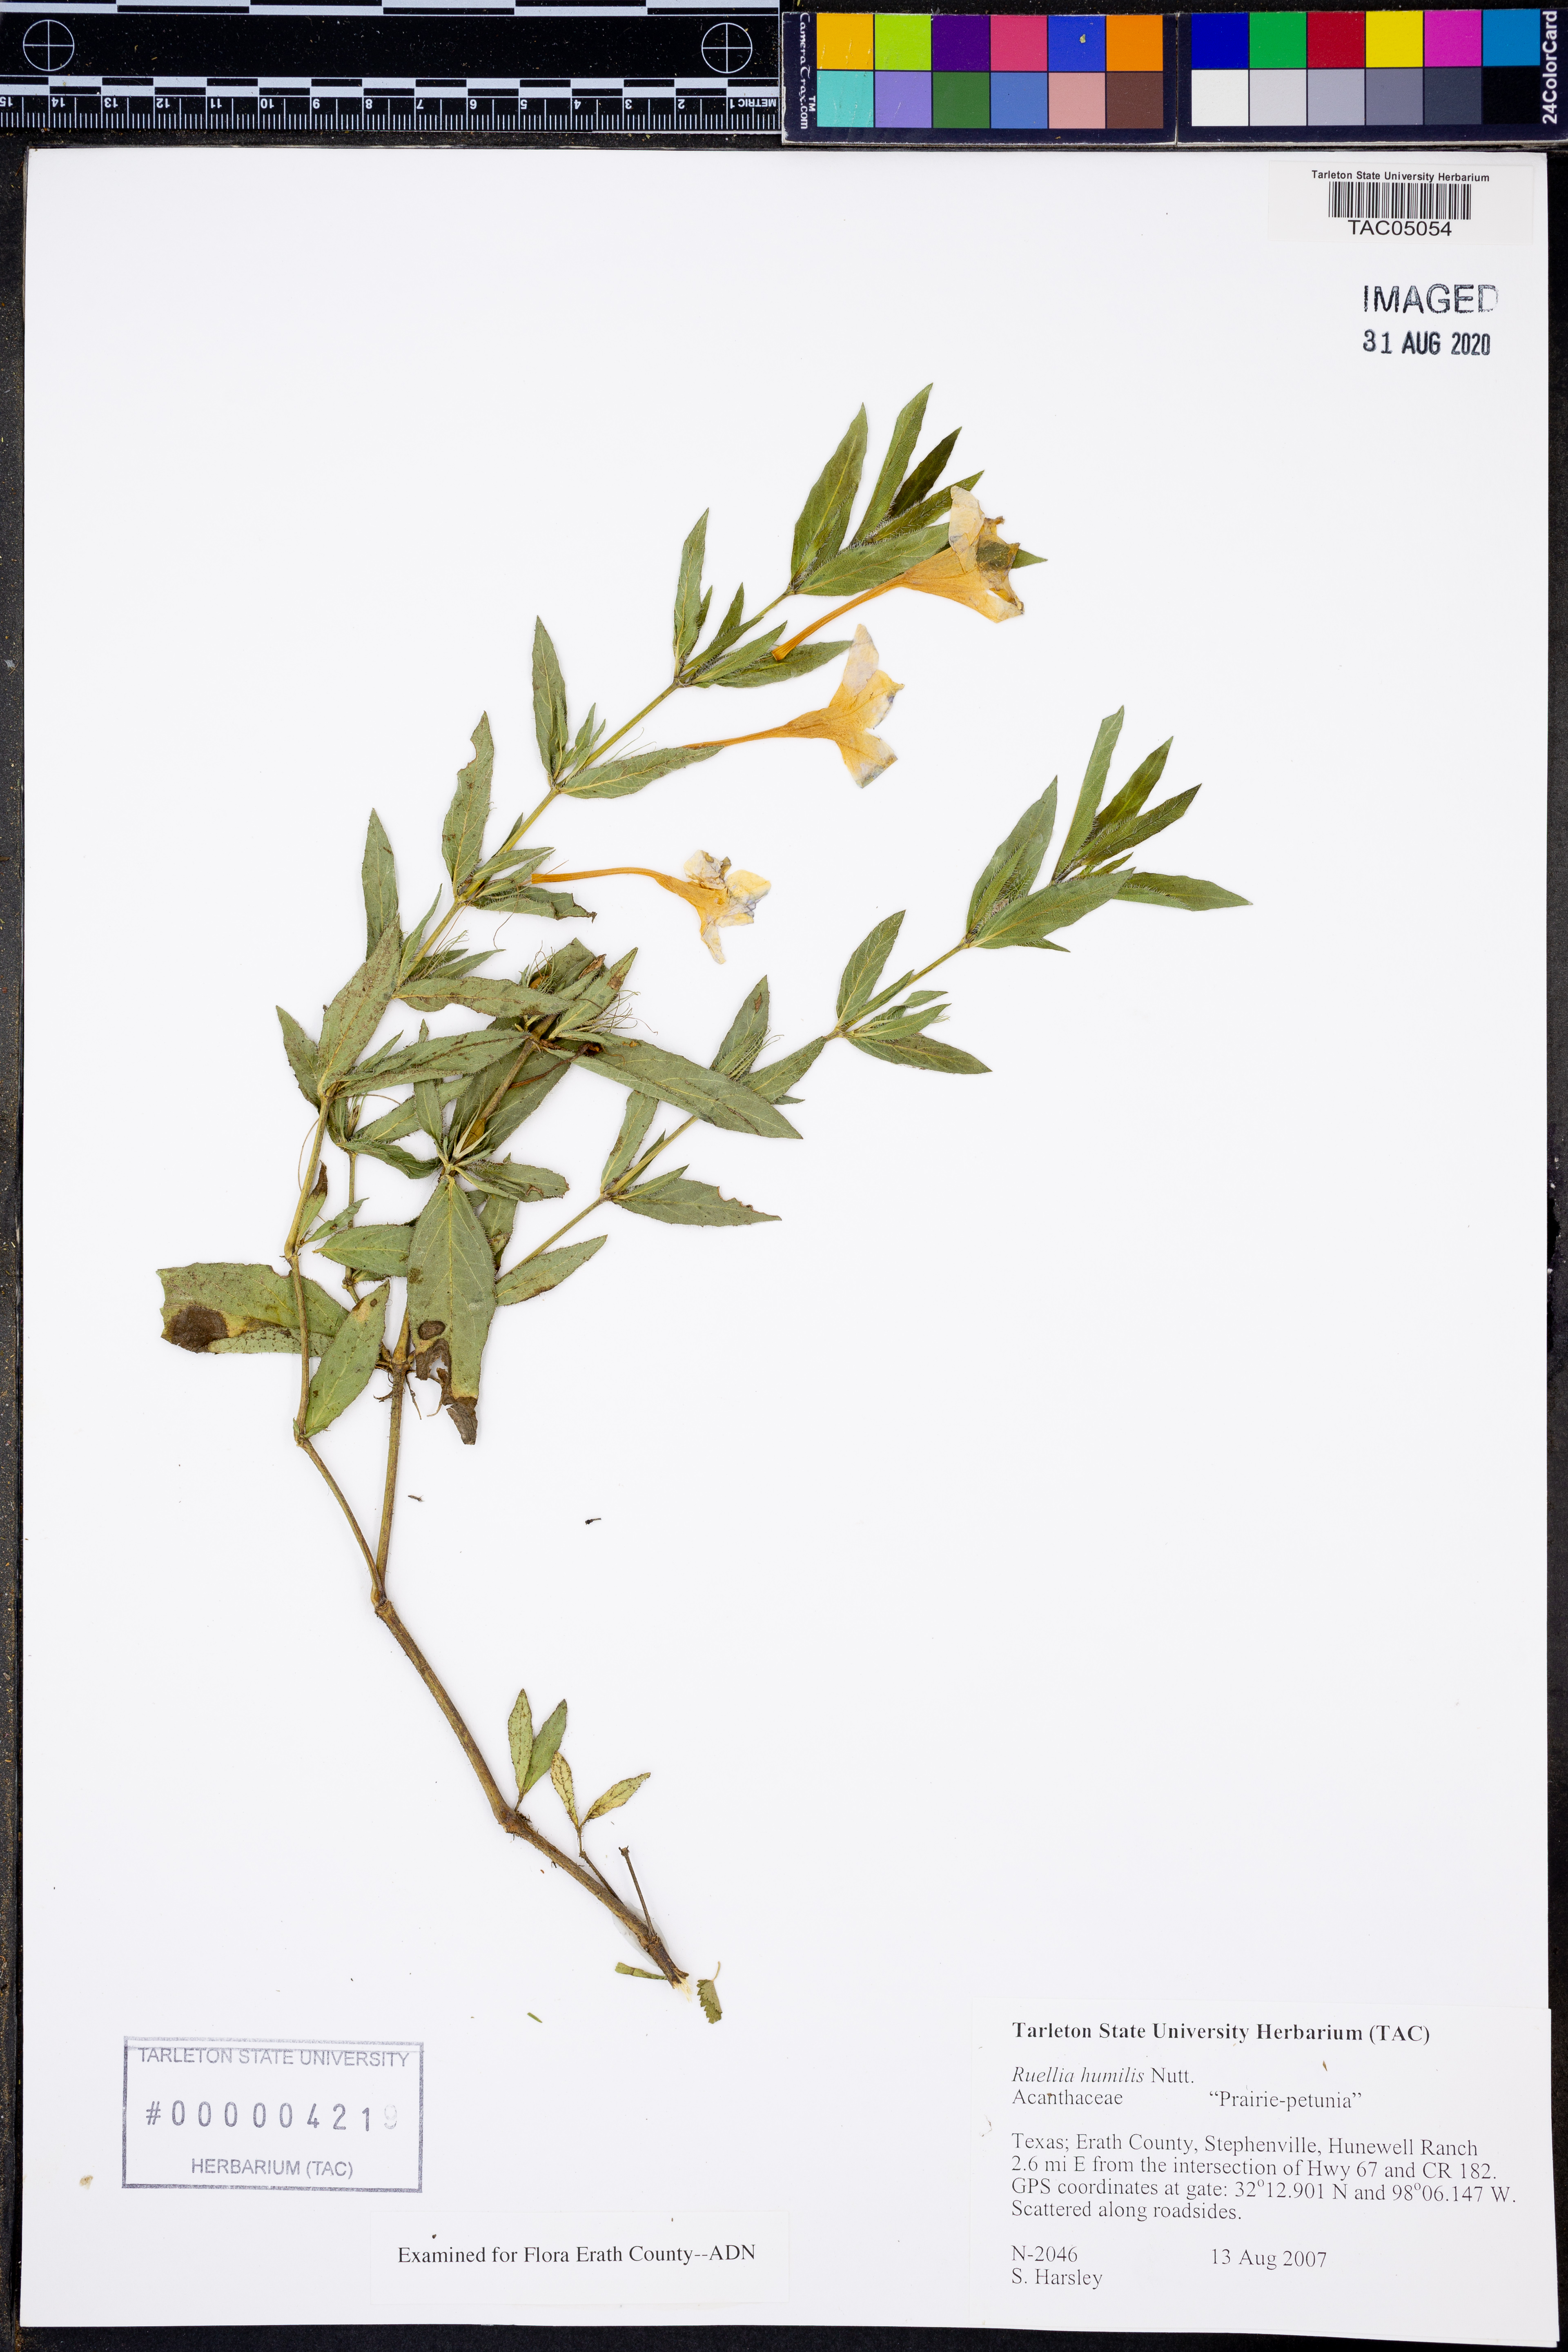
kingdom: Plantae
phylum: Tracheophyta
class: Magnoliopsida
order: Lamiales
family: Acanthaceae
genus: Ruellia
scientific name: Ruellia humilis
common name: Fringe-leaf ruellia
